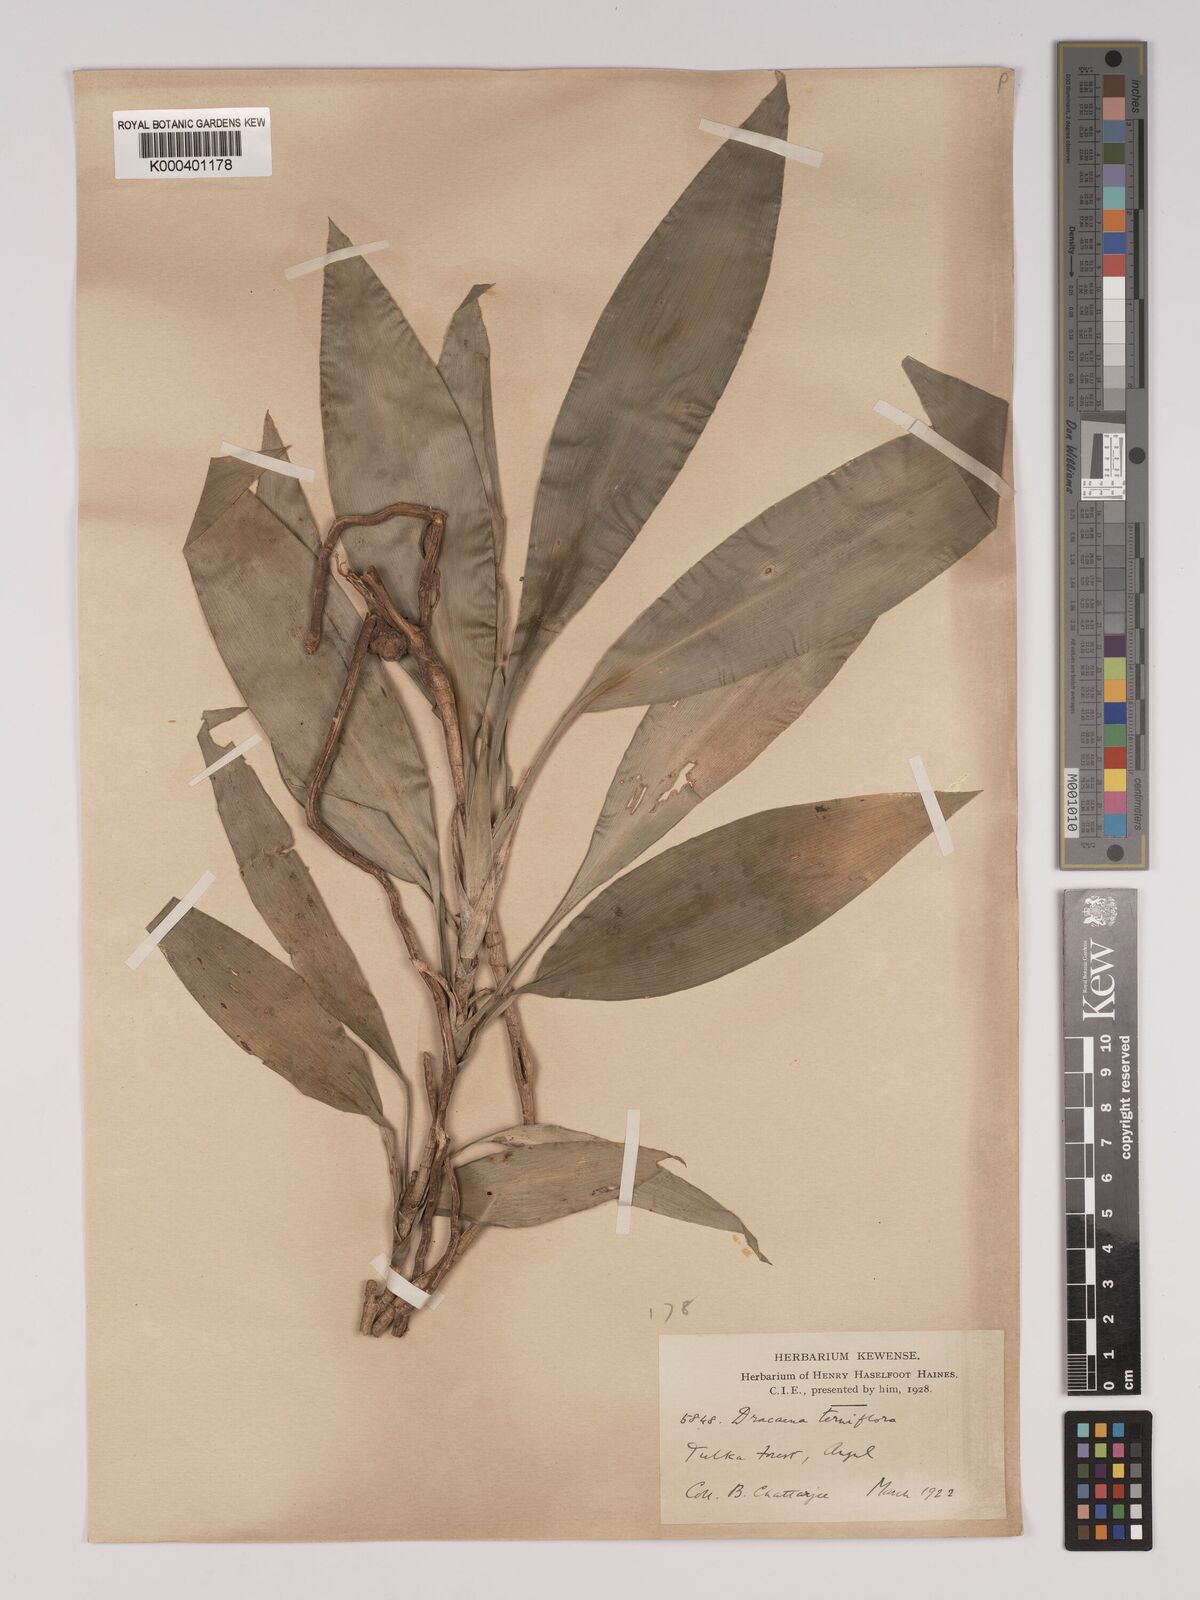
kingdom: Plantae
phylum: Tracheophyta
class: Liliopsida
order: Asparagales
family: Asparagaceae
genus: Dracaena
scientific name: Dracaena terniflora
